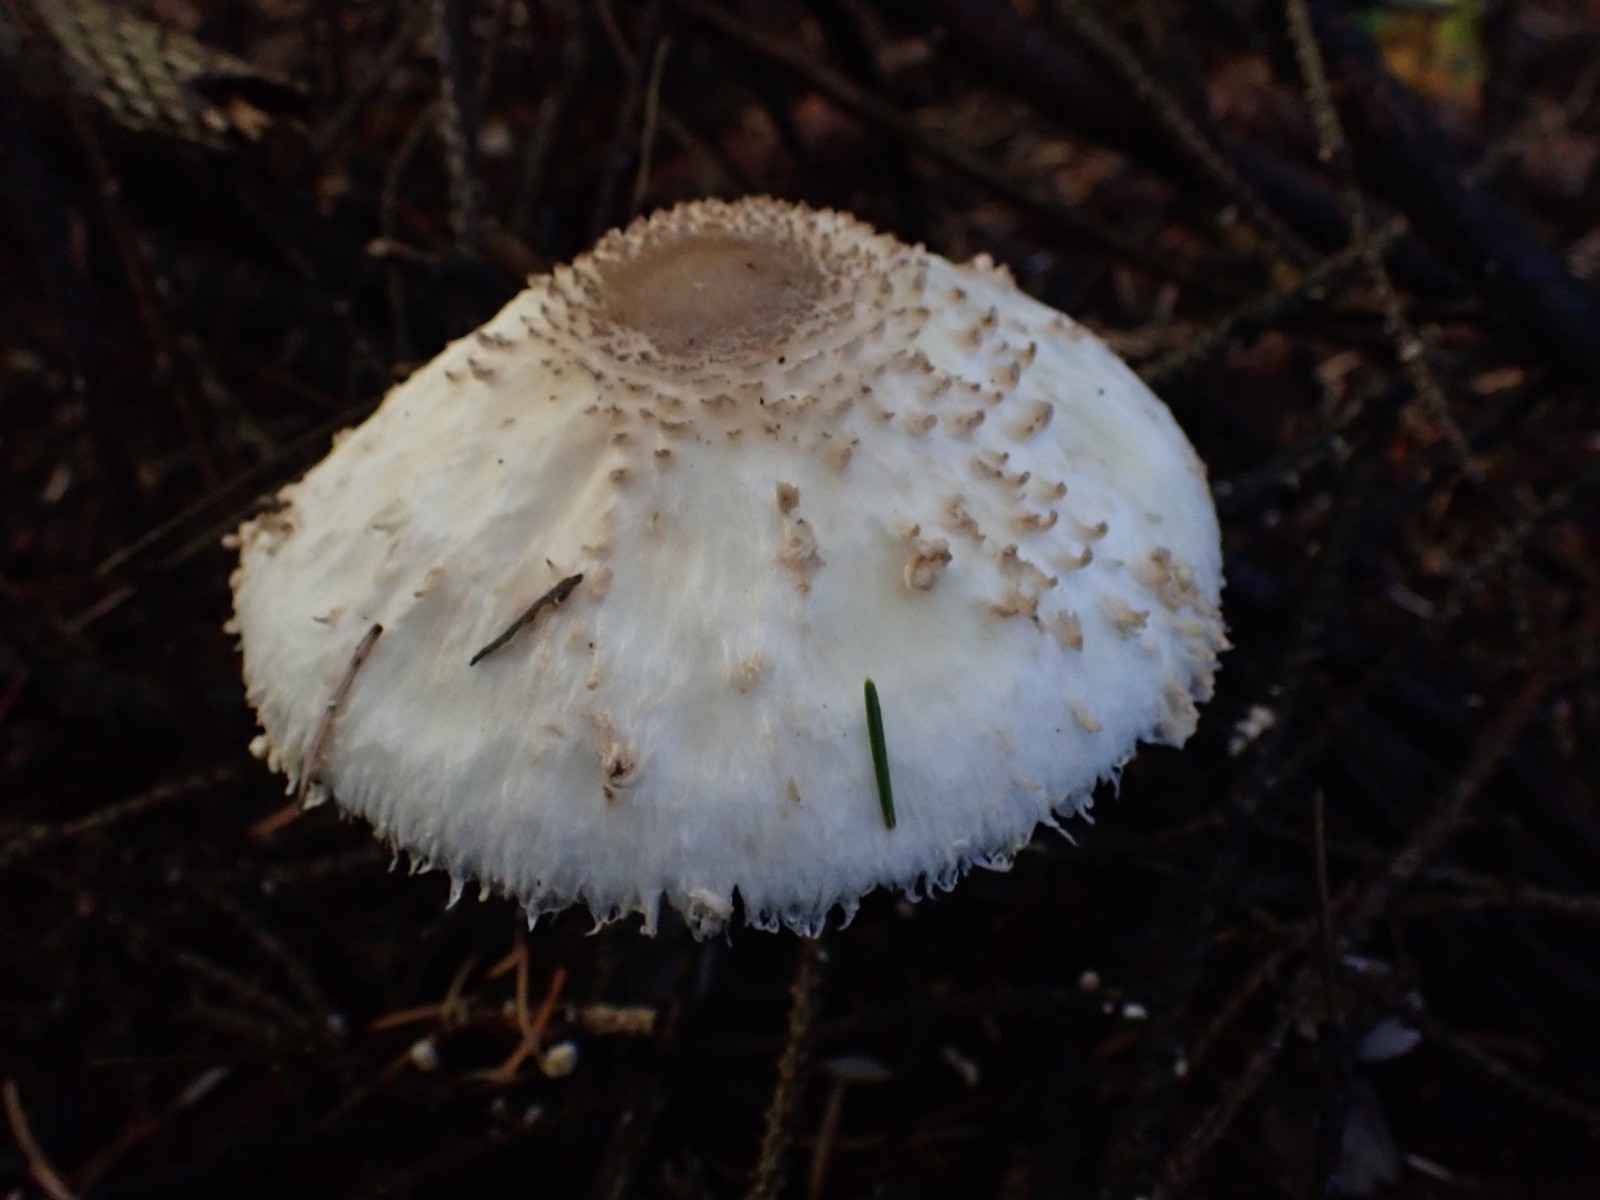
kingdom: Fungi
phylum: Basidiomycota
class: Agaricomycetes
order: Agaricales
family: Agaricaceae
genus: Leucoagaricus
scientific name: Leucoagaricus nympharum
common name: gran-silkehat
